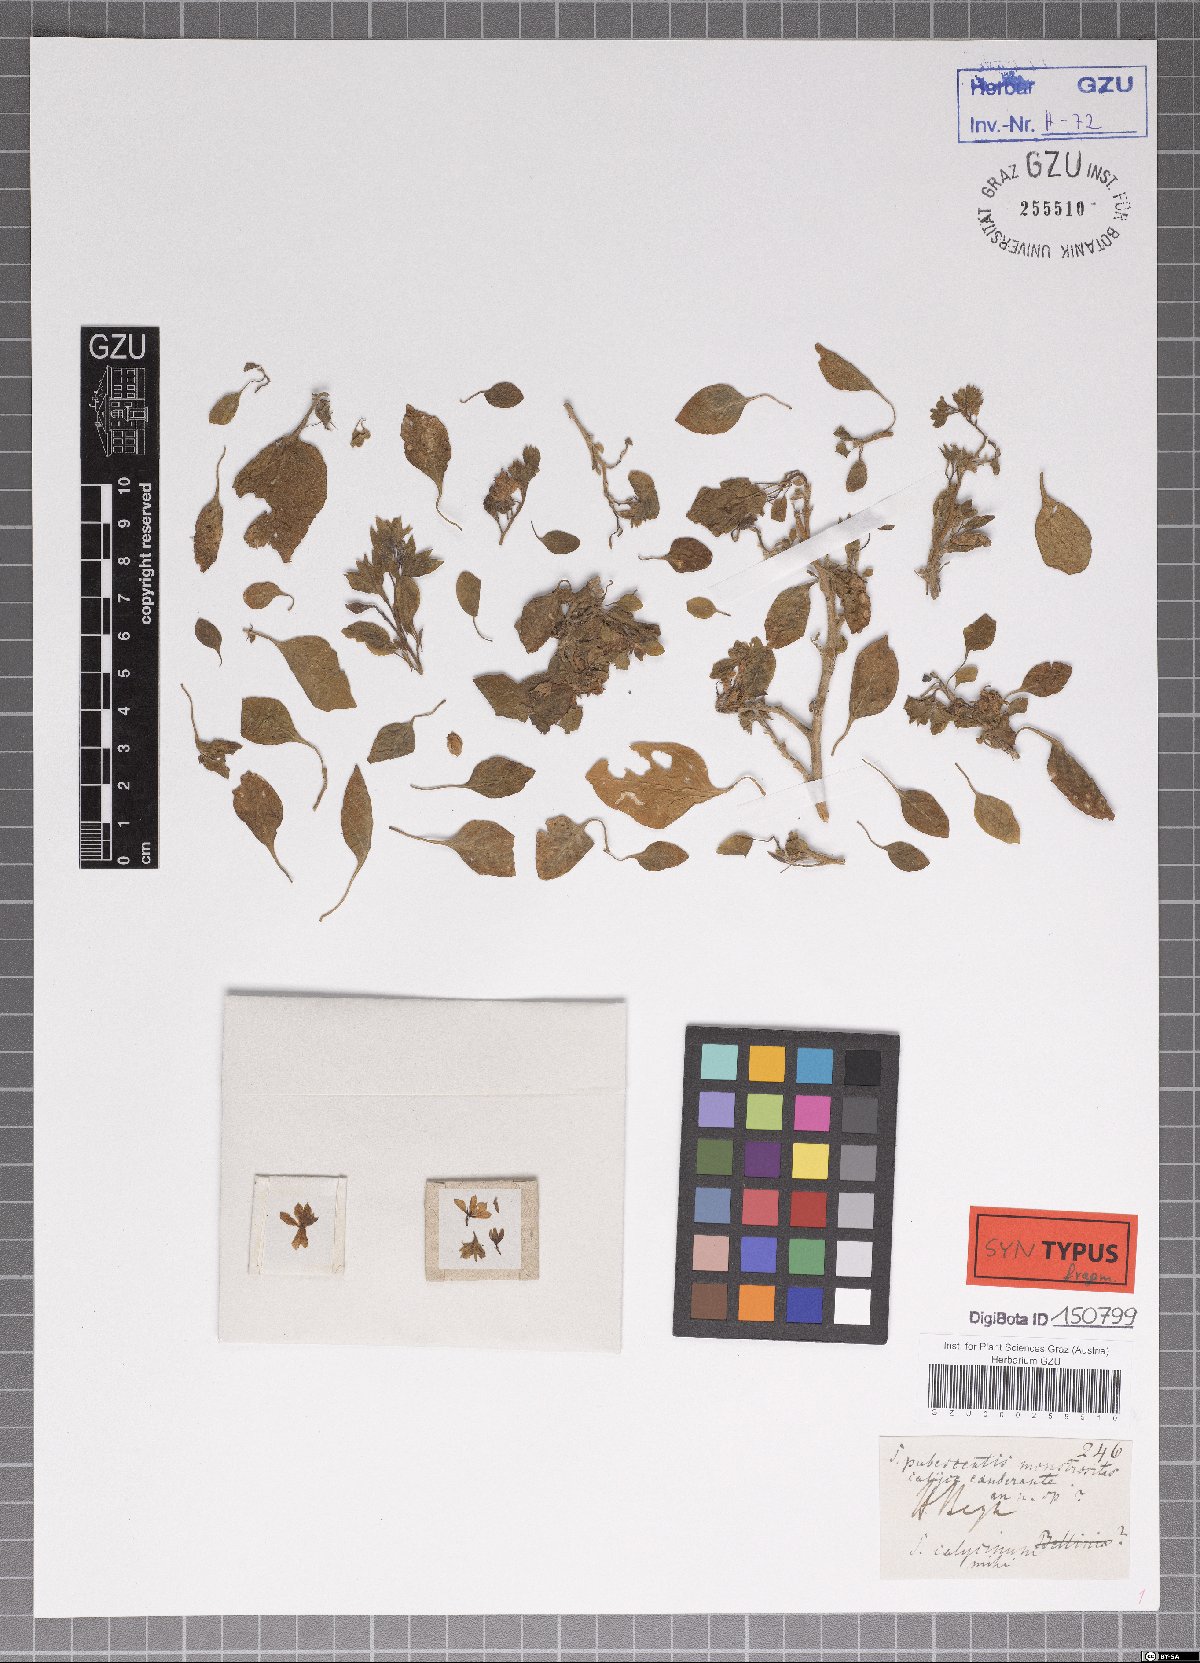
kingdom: Plantae
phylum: Tracheophyta
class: Magnoliopsida
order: Solanales
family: Solanaceae
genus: Solanum
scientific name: Solanum pubescens
